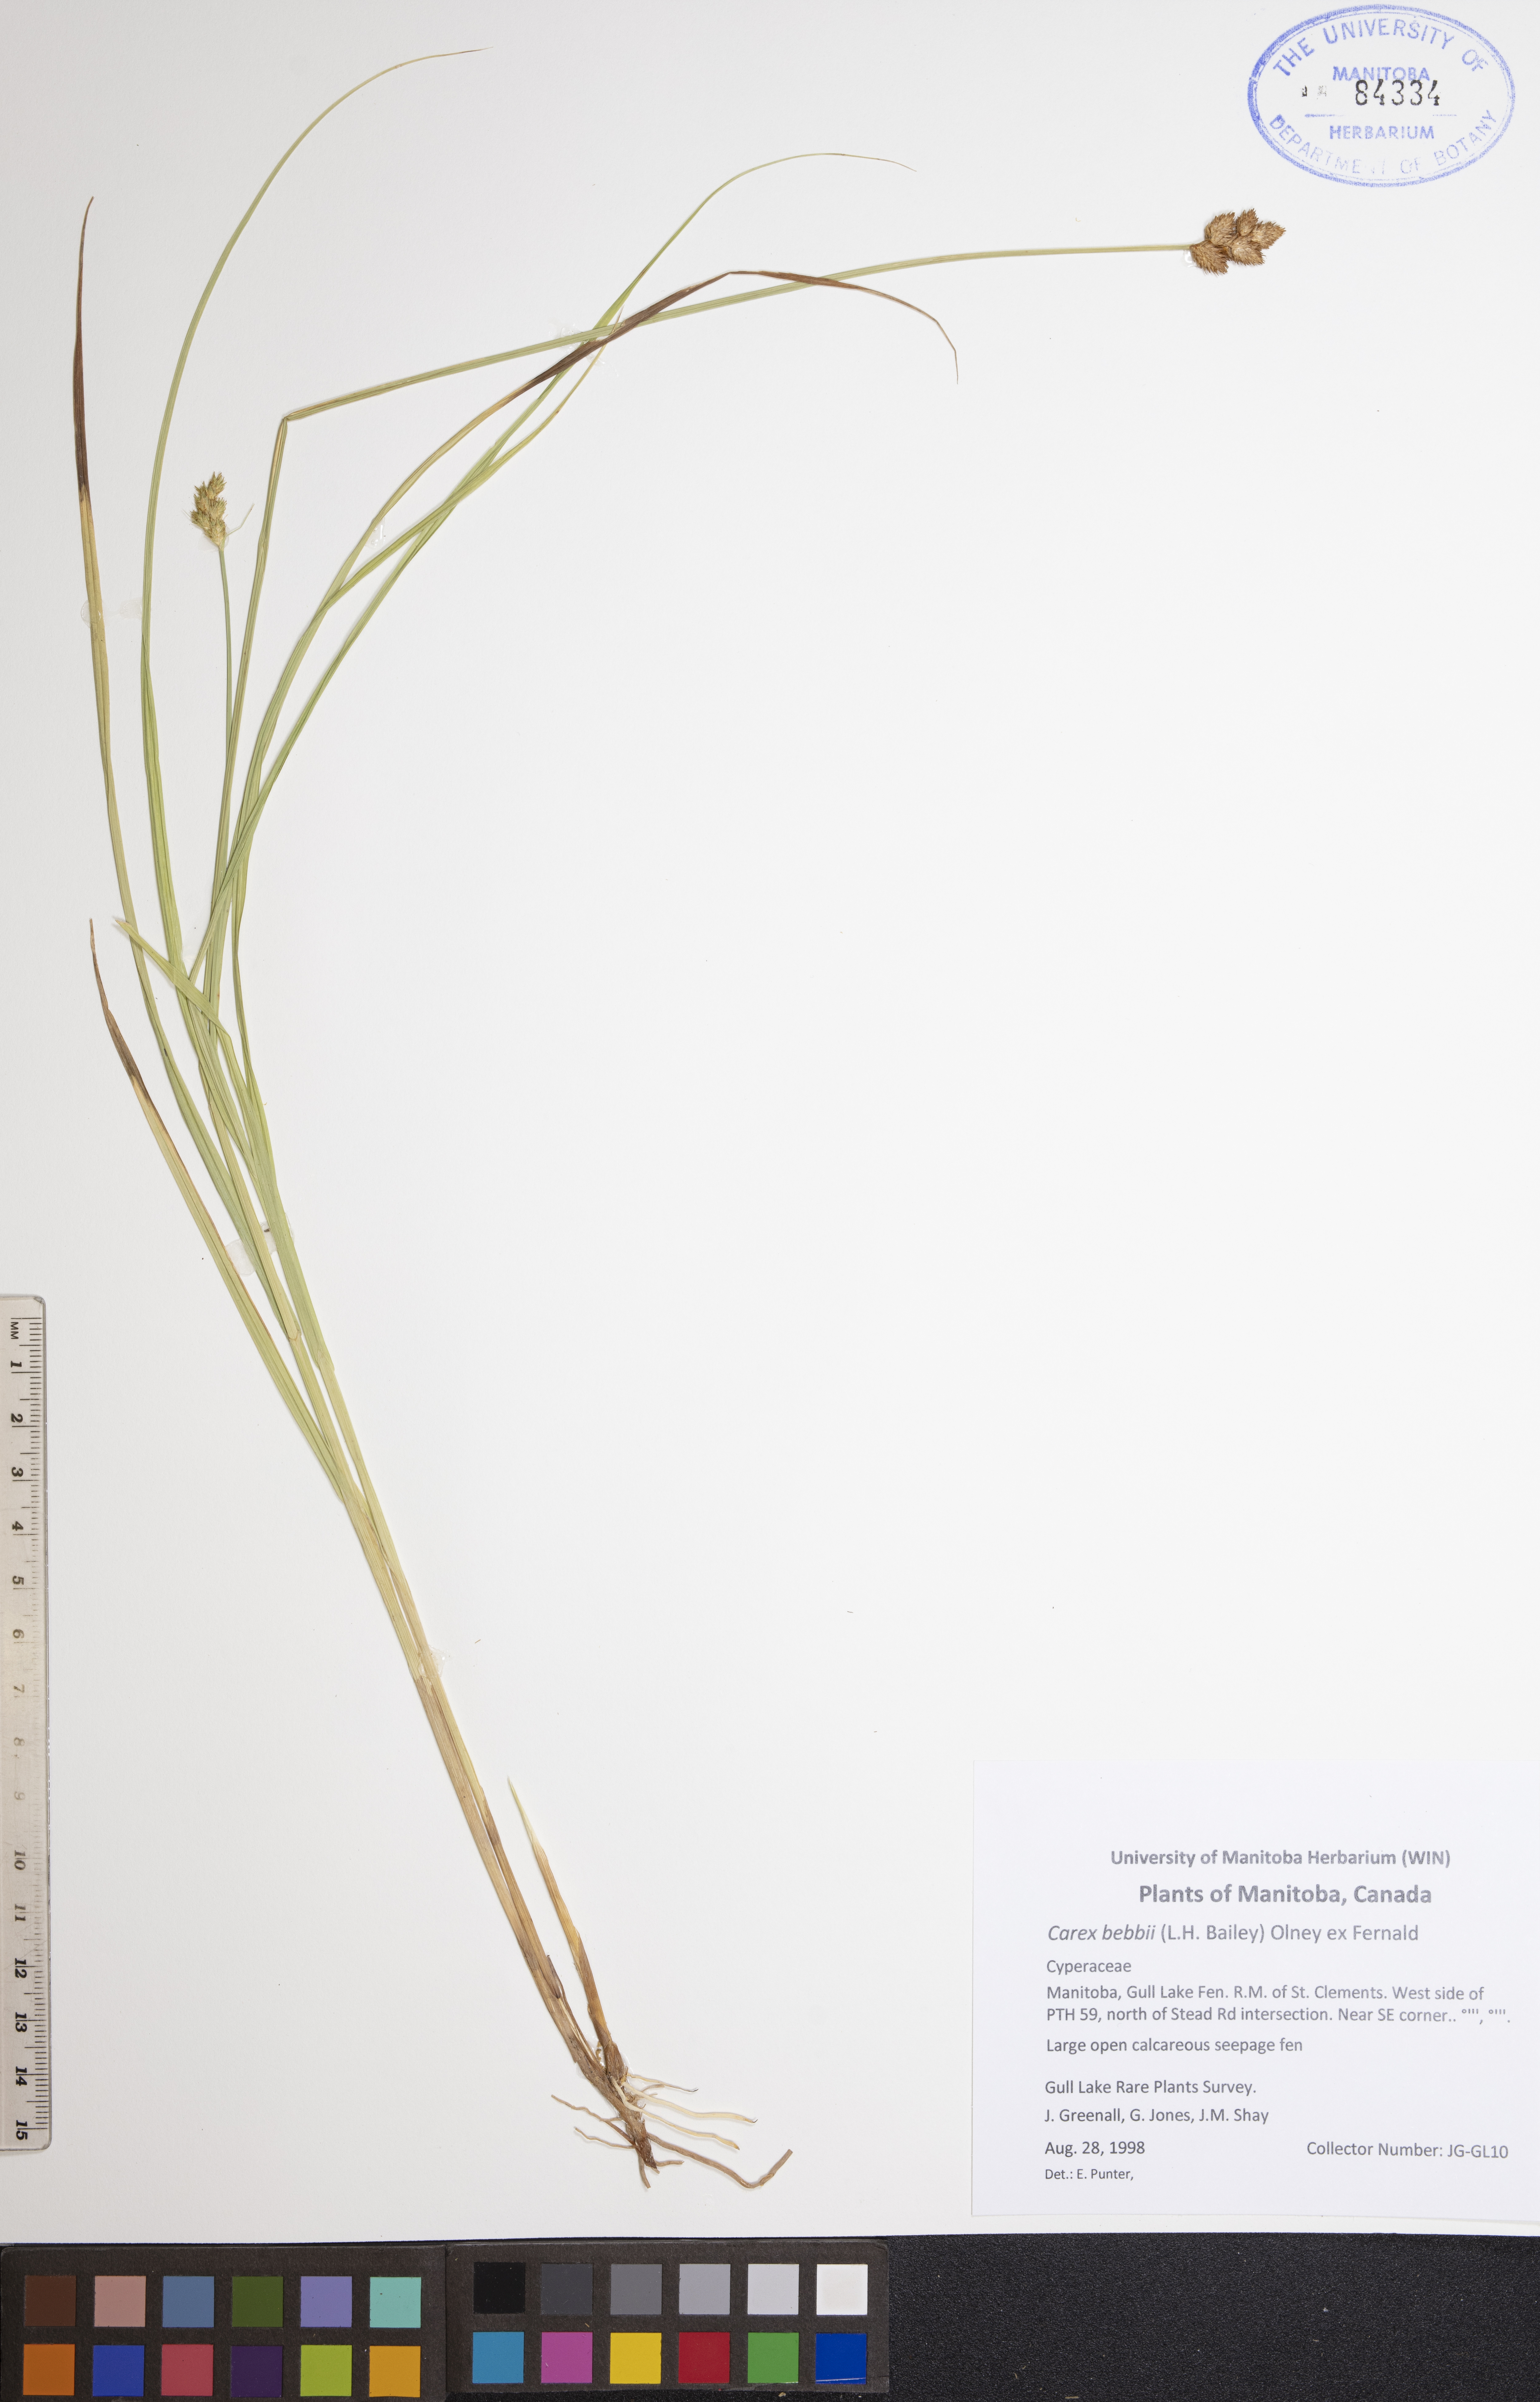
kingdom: Plantae
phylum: Tracheophyta
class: Liliopsida
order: Poales
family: Cyperaceae
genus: Carex
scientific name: Carex bebbii
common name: Bebb's sedge
